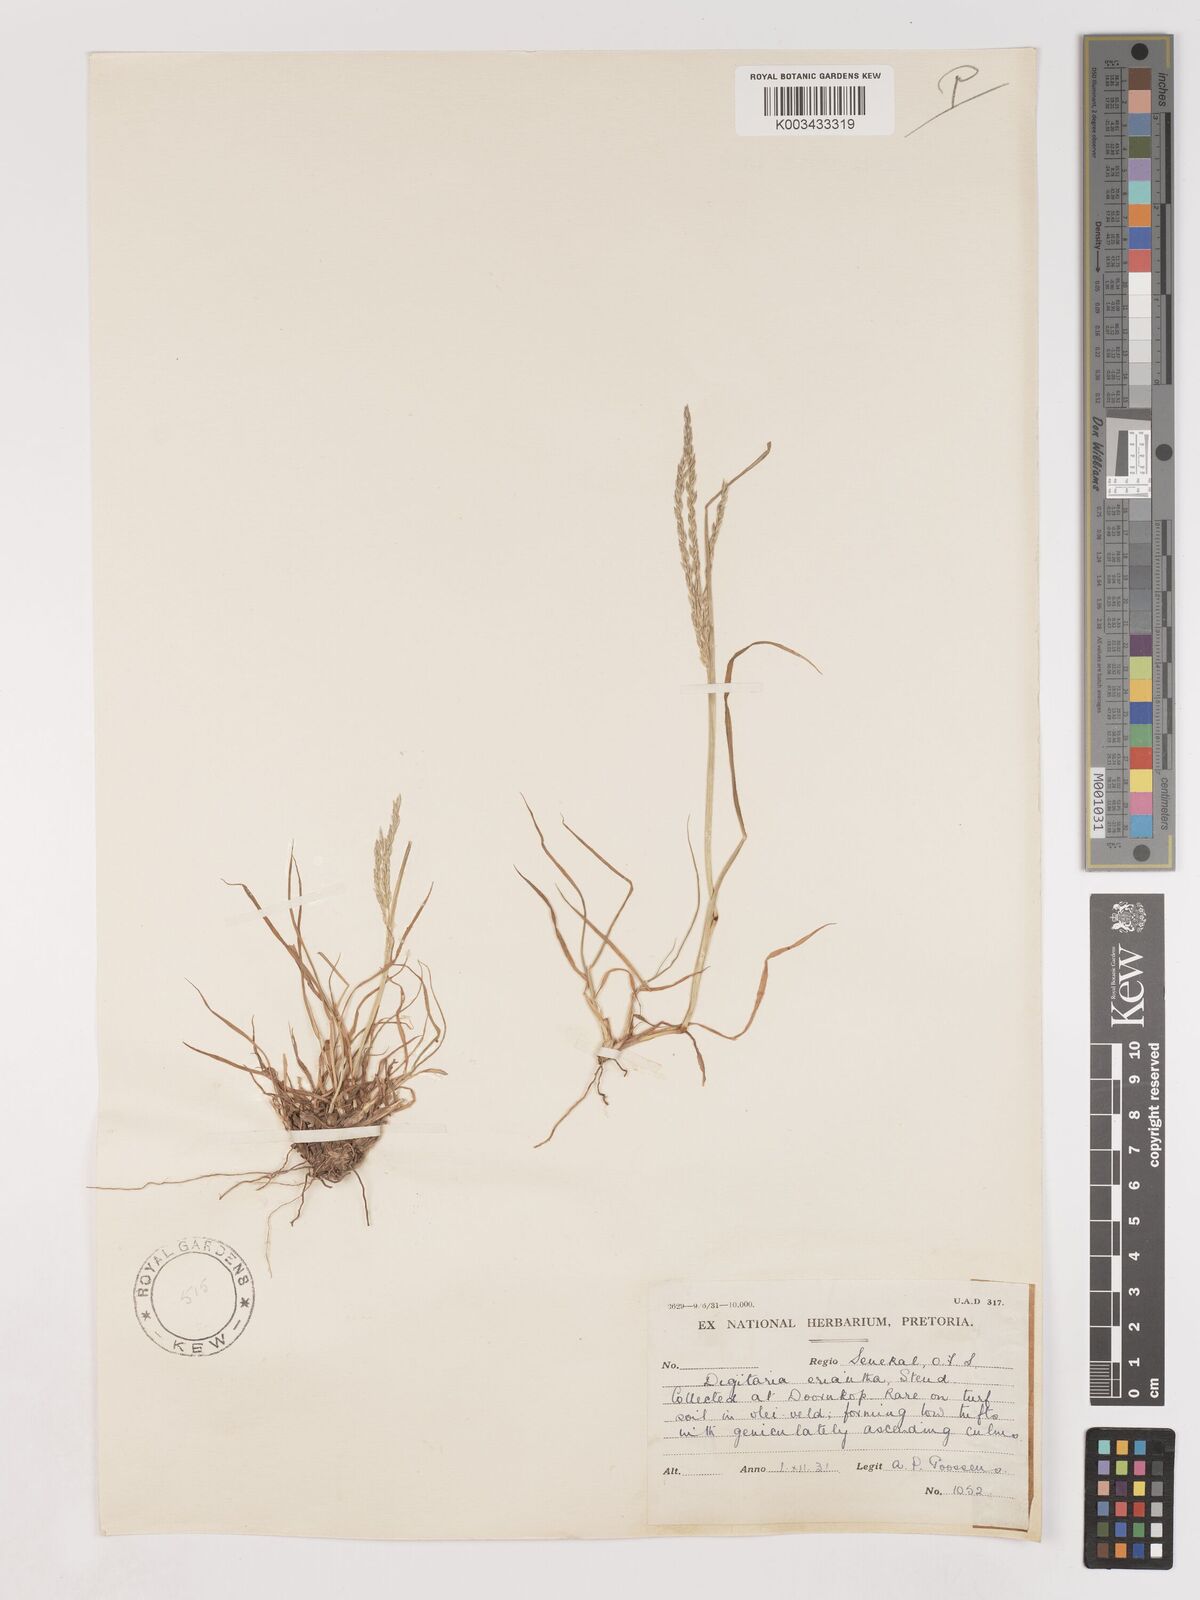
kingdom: Plantae
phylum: Tracheophyta
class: Liliopsida
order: Poales
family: Poaceae
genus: Digitaria
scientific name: Digitaria eriantha
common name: Digitgrass
